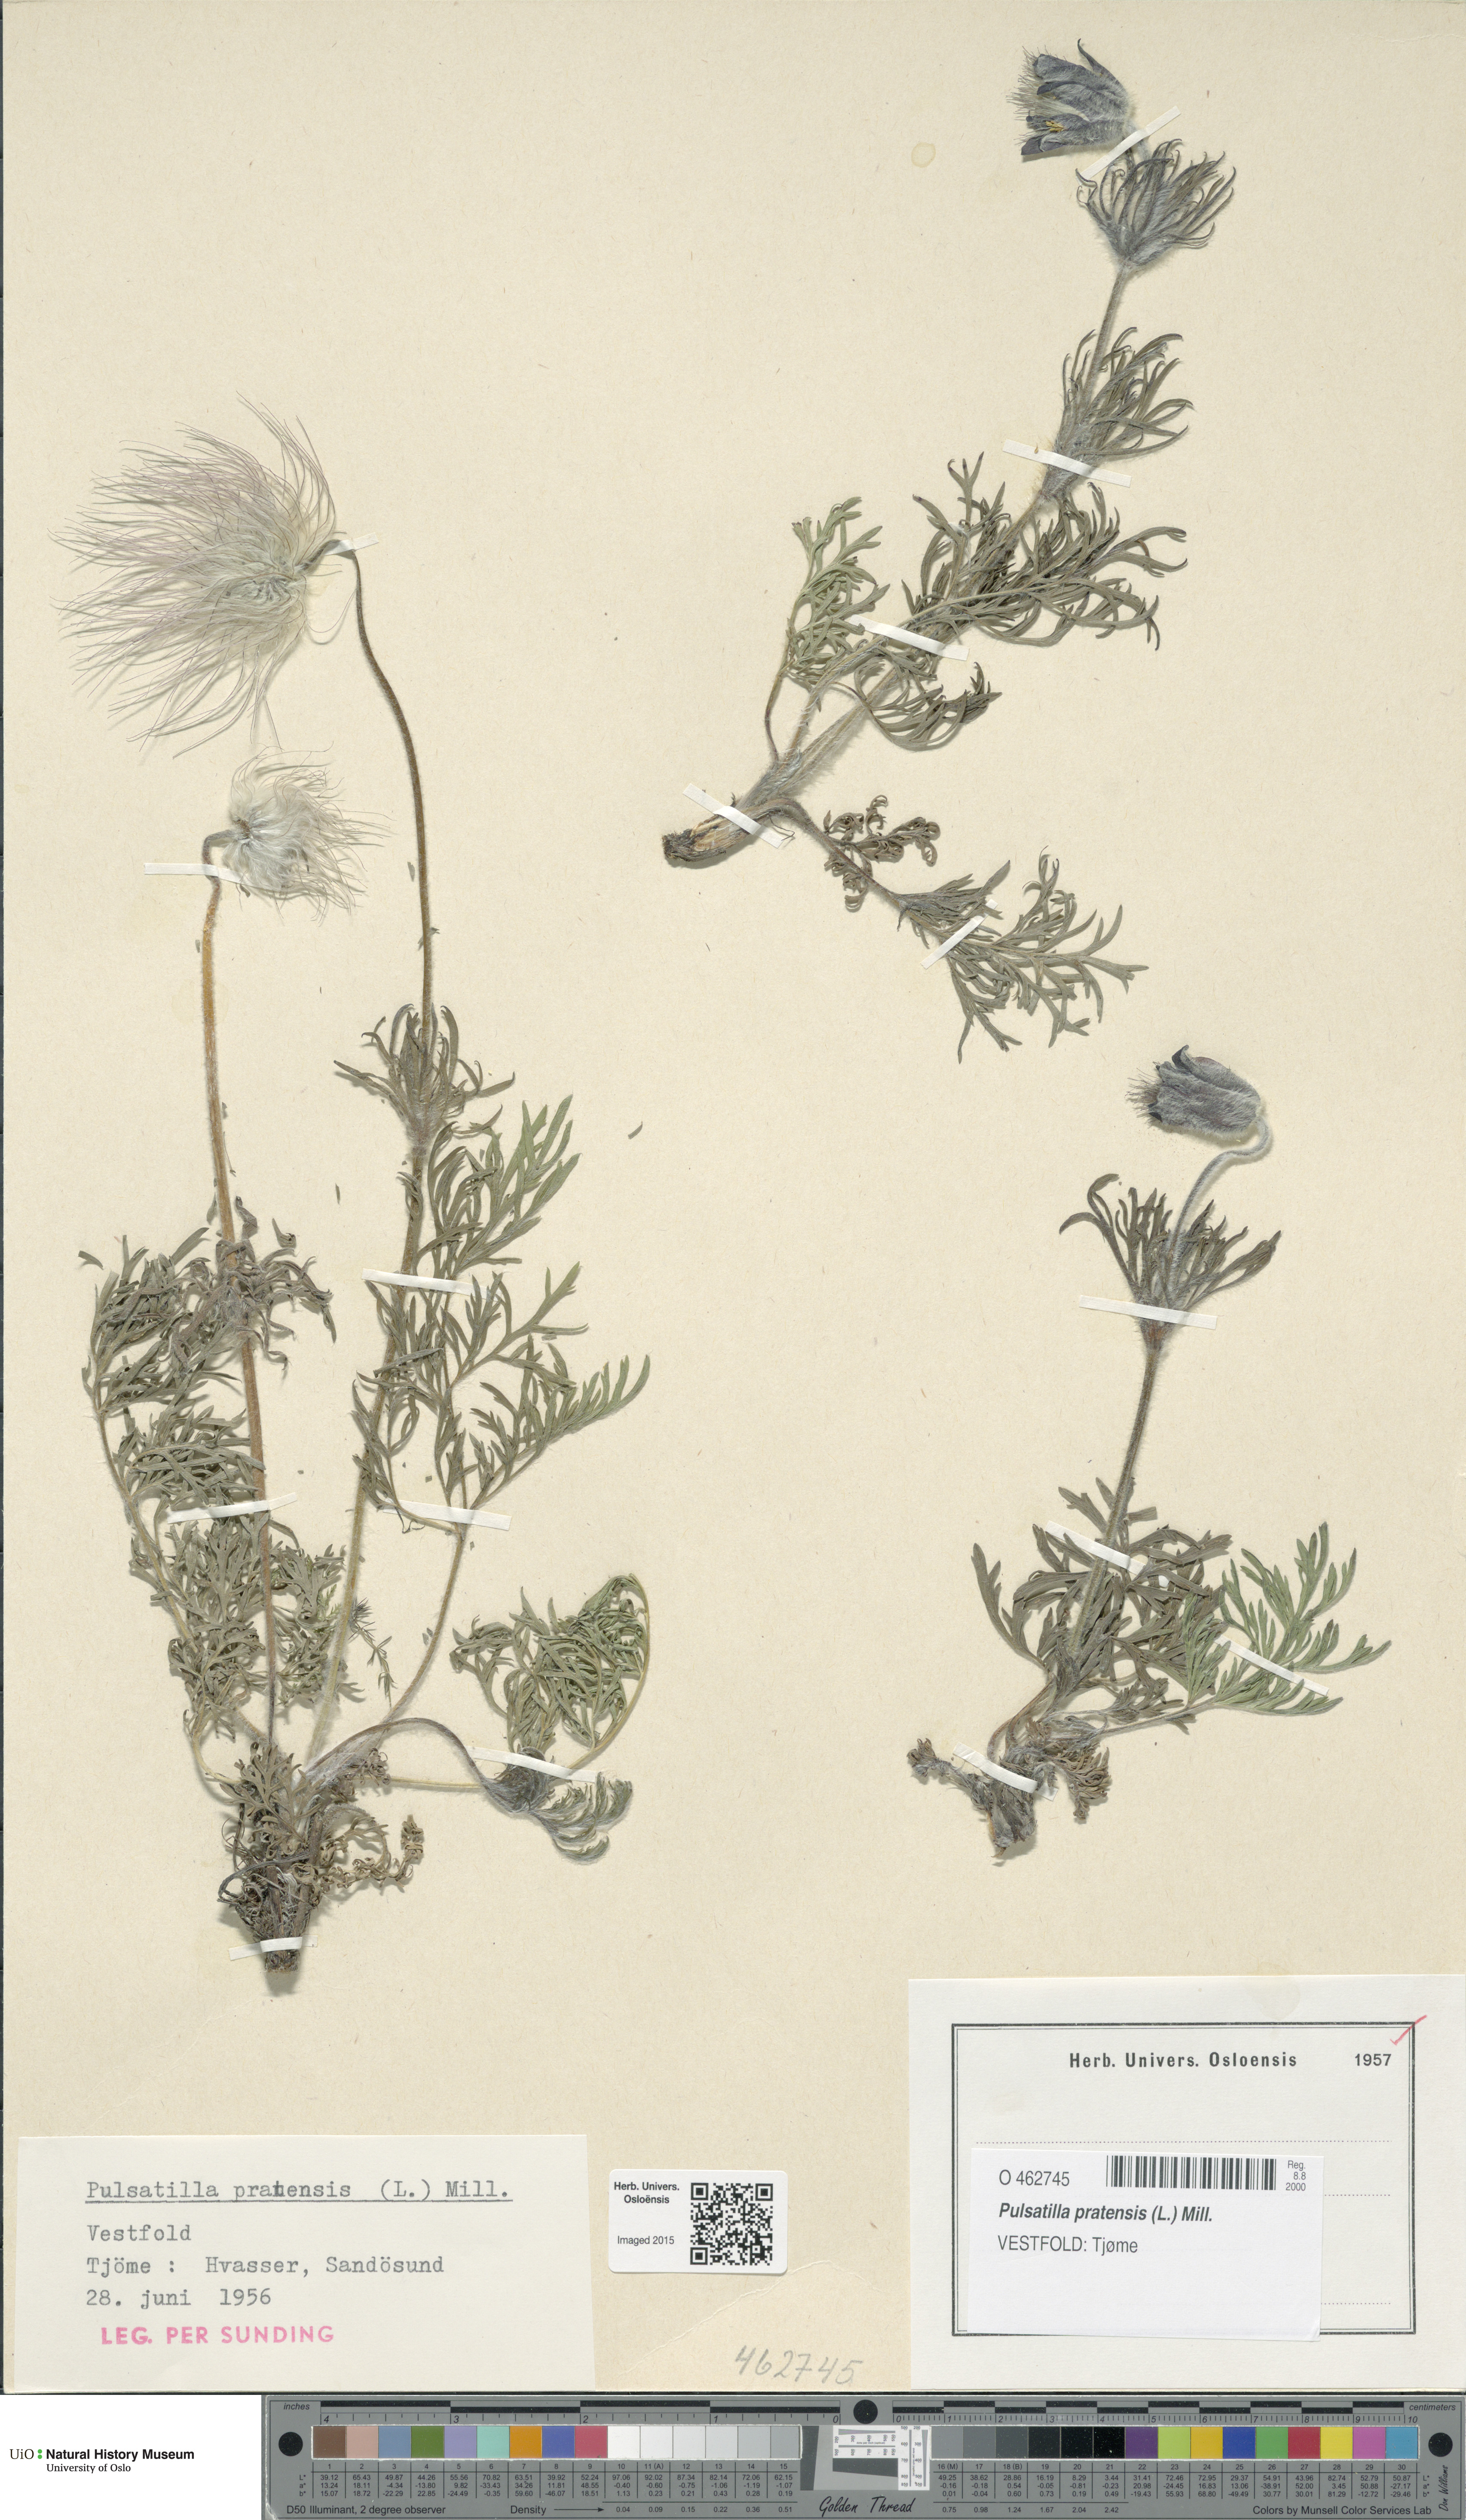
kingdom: Plantae
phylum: Tracheophyta
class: Magnoliopsida
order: Ranunculales
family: Ranunculaceae
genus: Pulsatilla
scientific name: Pulsatilla pratensis
